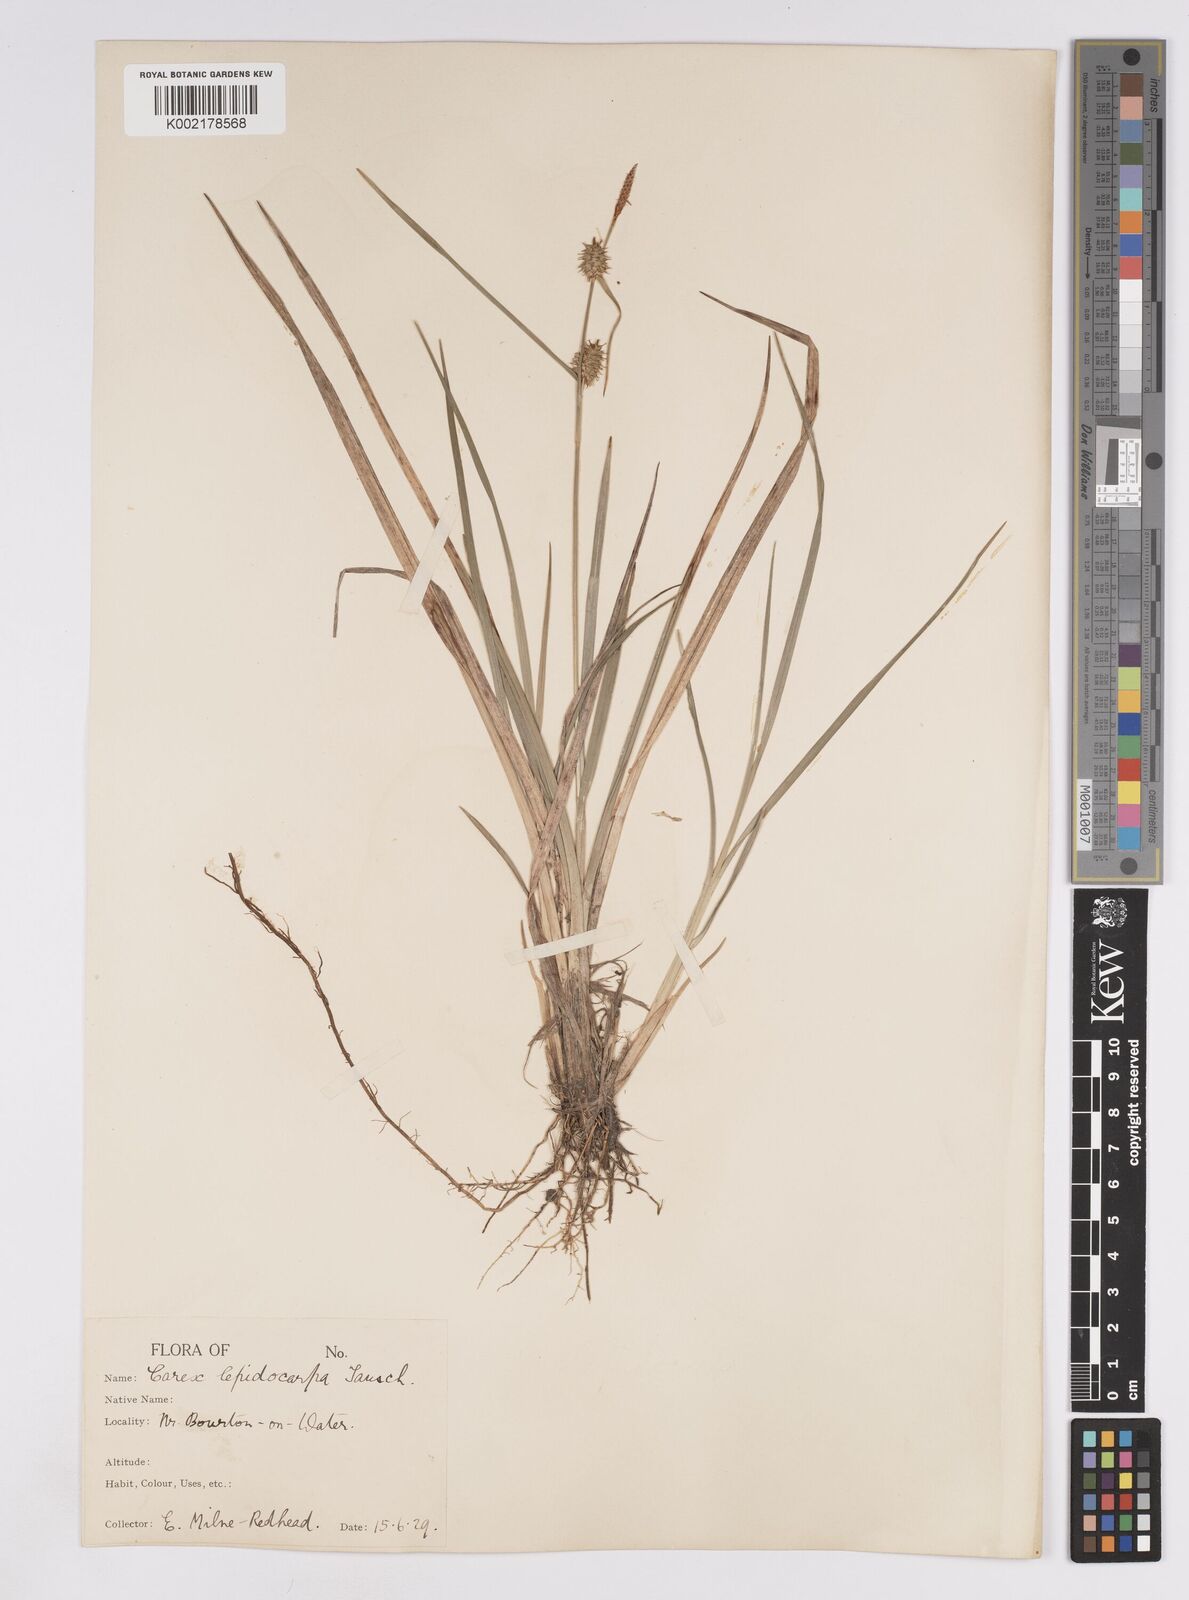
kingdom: Plantae
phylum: Tracheophyta
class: Liliopsida
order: Poales
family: Cyperaceae
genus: Carex
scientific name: Carex lepidocarpa
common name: Long-stalked yellow-sedge
